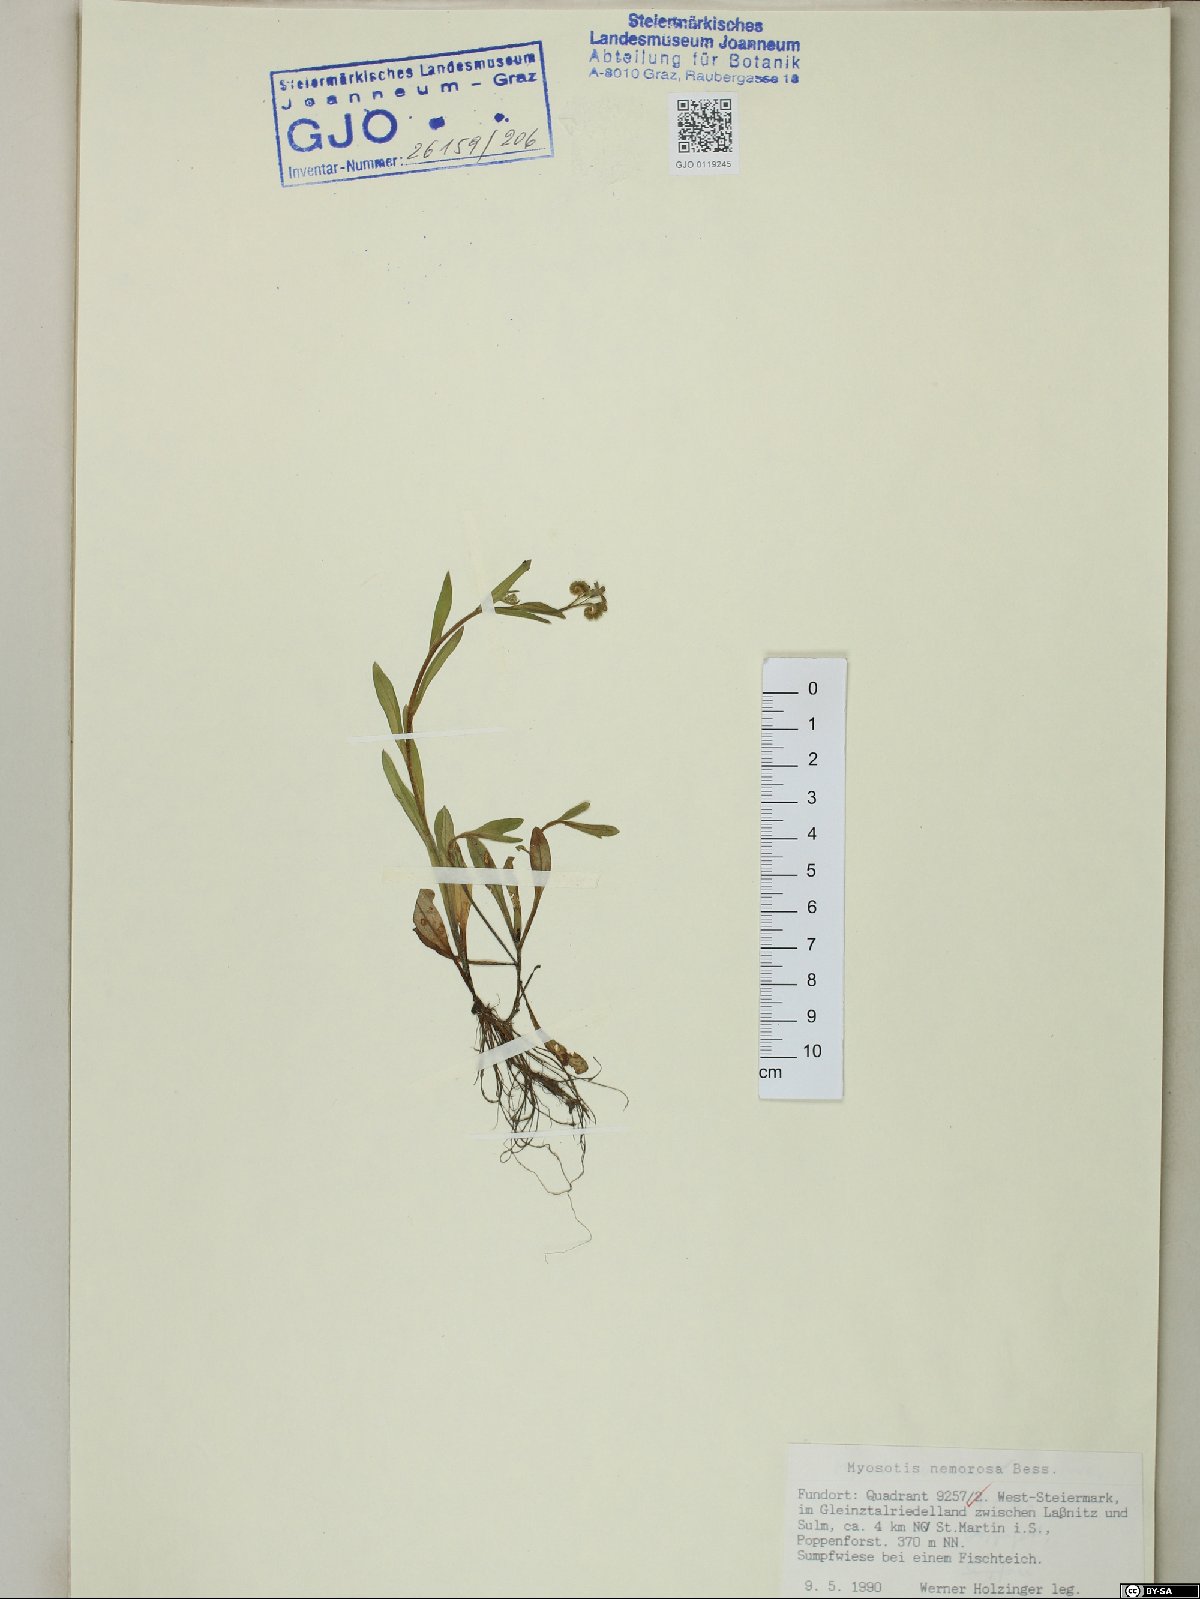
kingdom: Plantae
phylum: Tracheophyta
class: Magnoliopsida
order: Boraginales
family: Boraginaceae
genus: Myosotis
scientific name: Myosotis nemorosa
